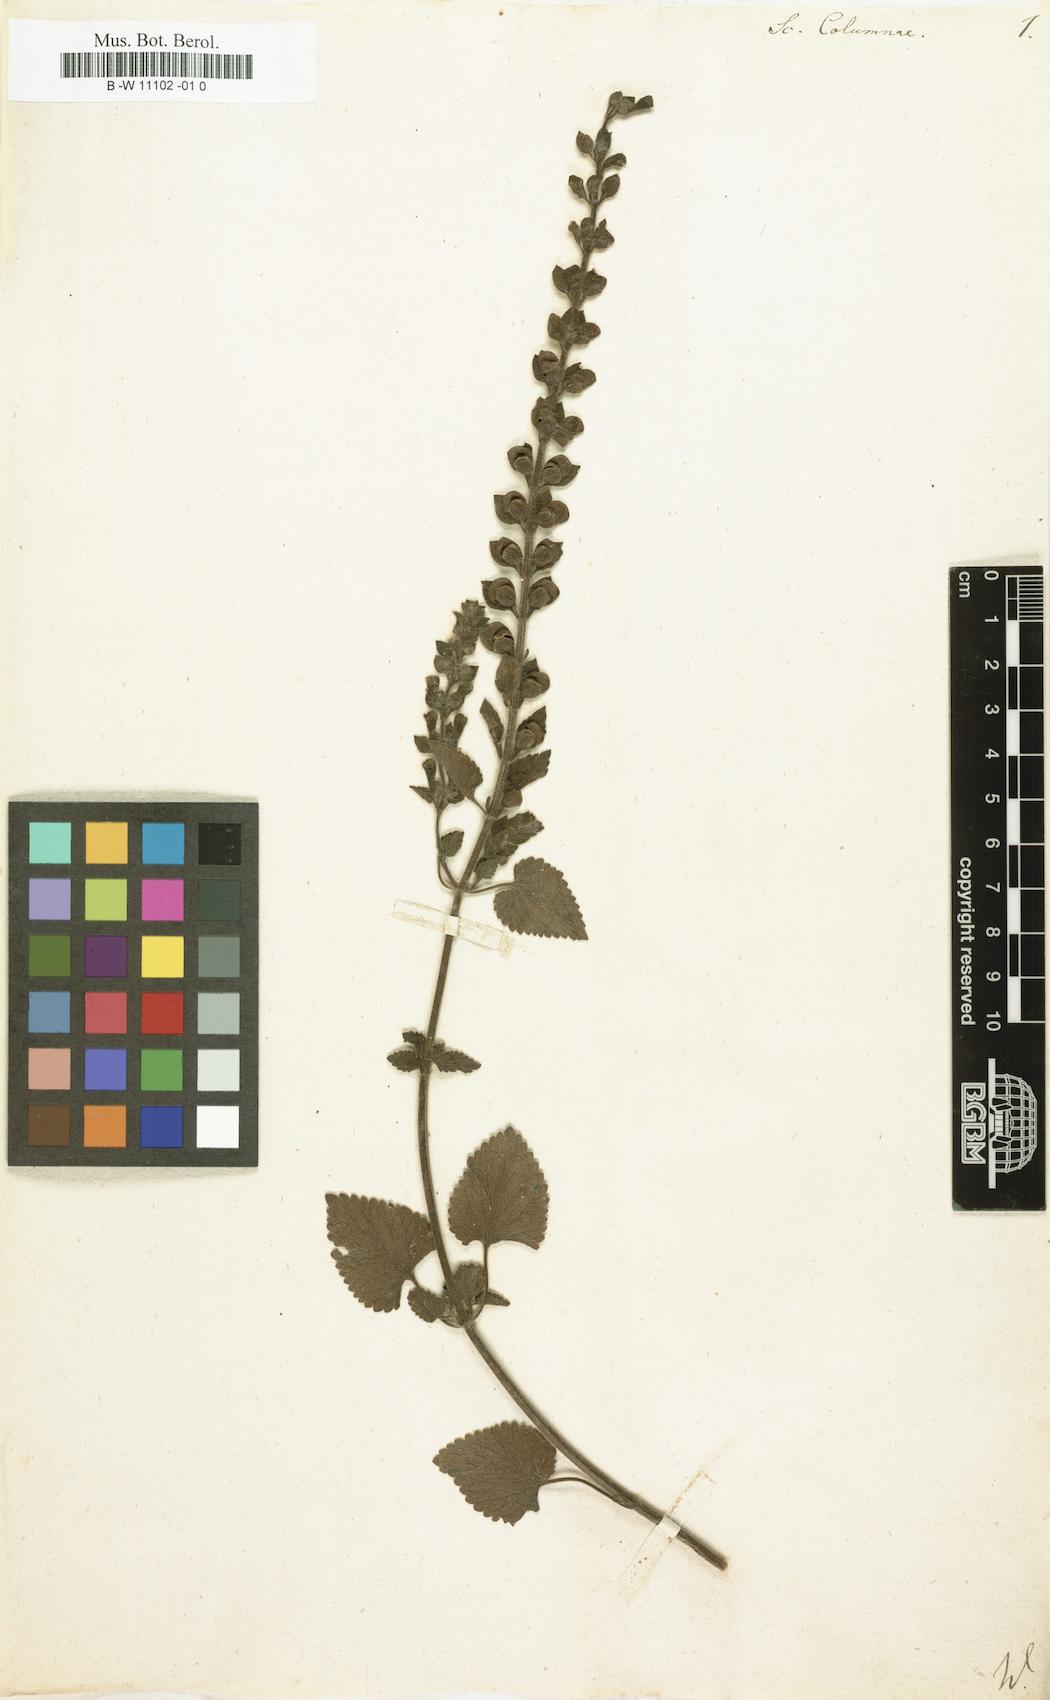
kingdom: Plantae
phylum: Tracheophyta
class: Magnoliopsida
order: Lamiales
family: Lamiaceae
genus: Scutellaria
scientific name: Scutellaria columnae
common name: Large skullcap
